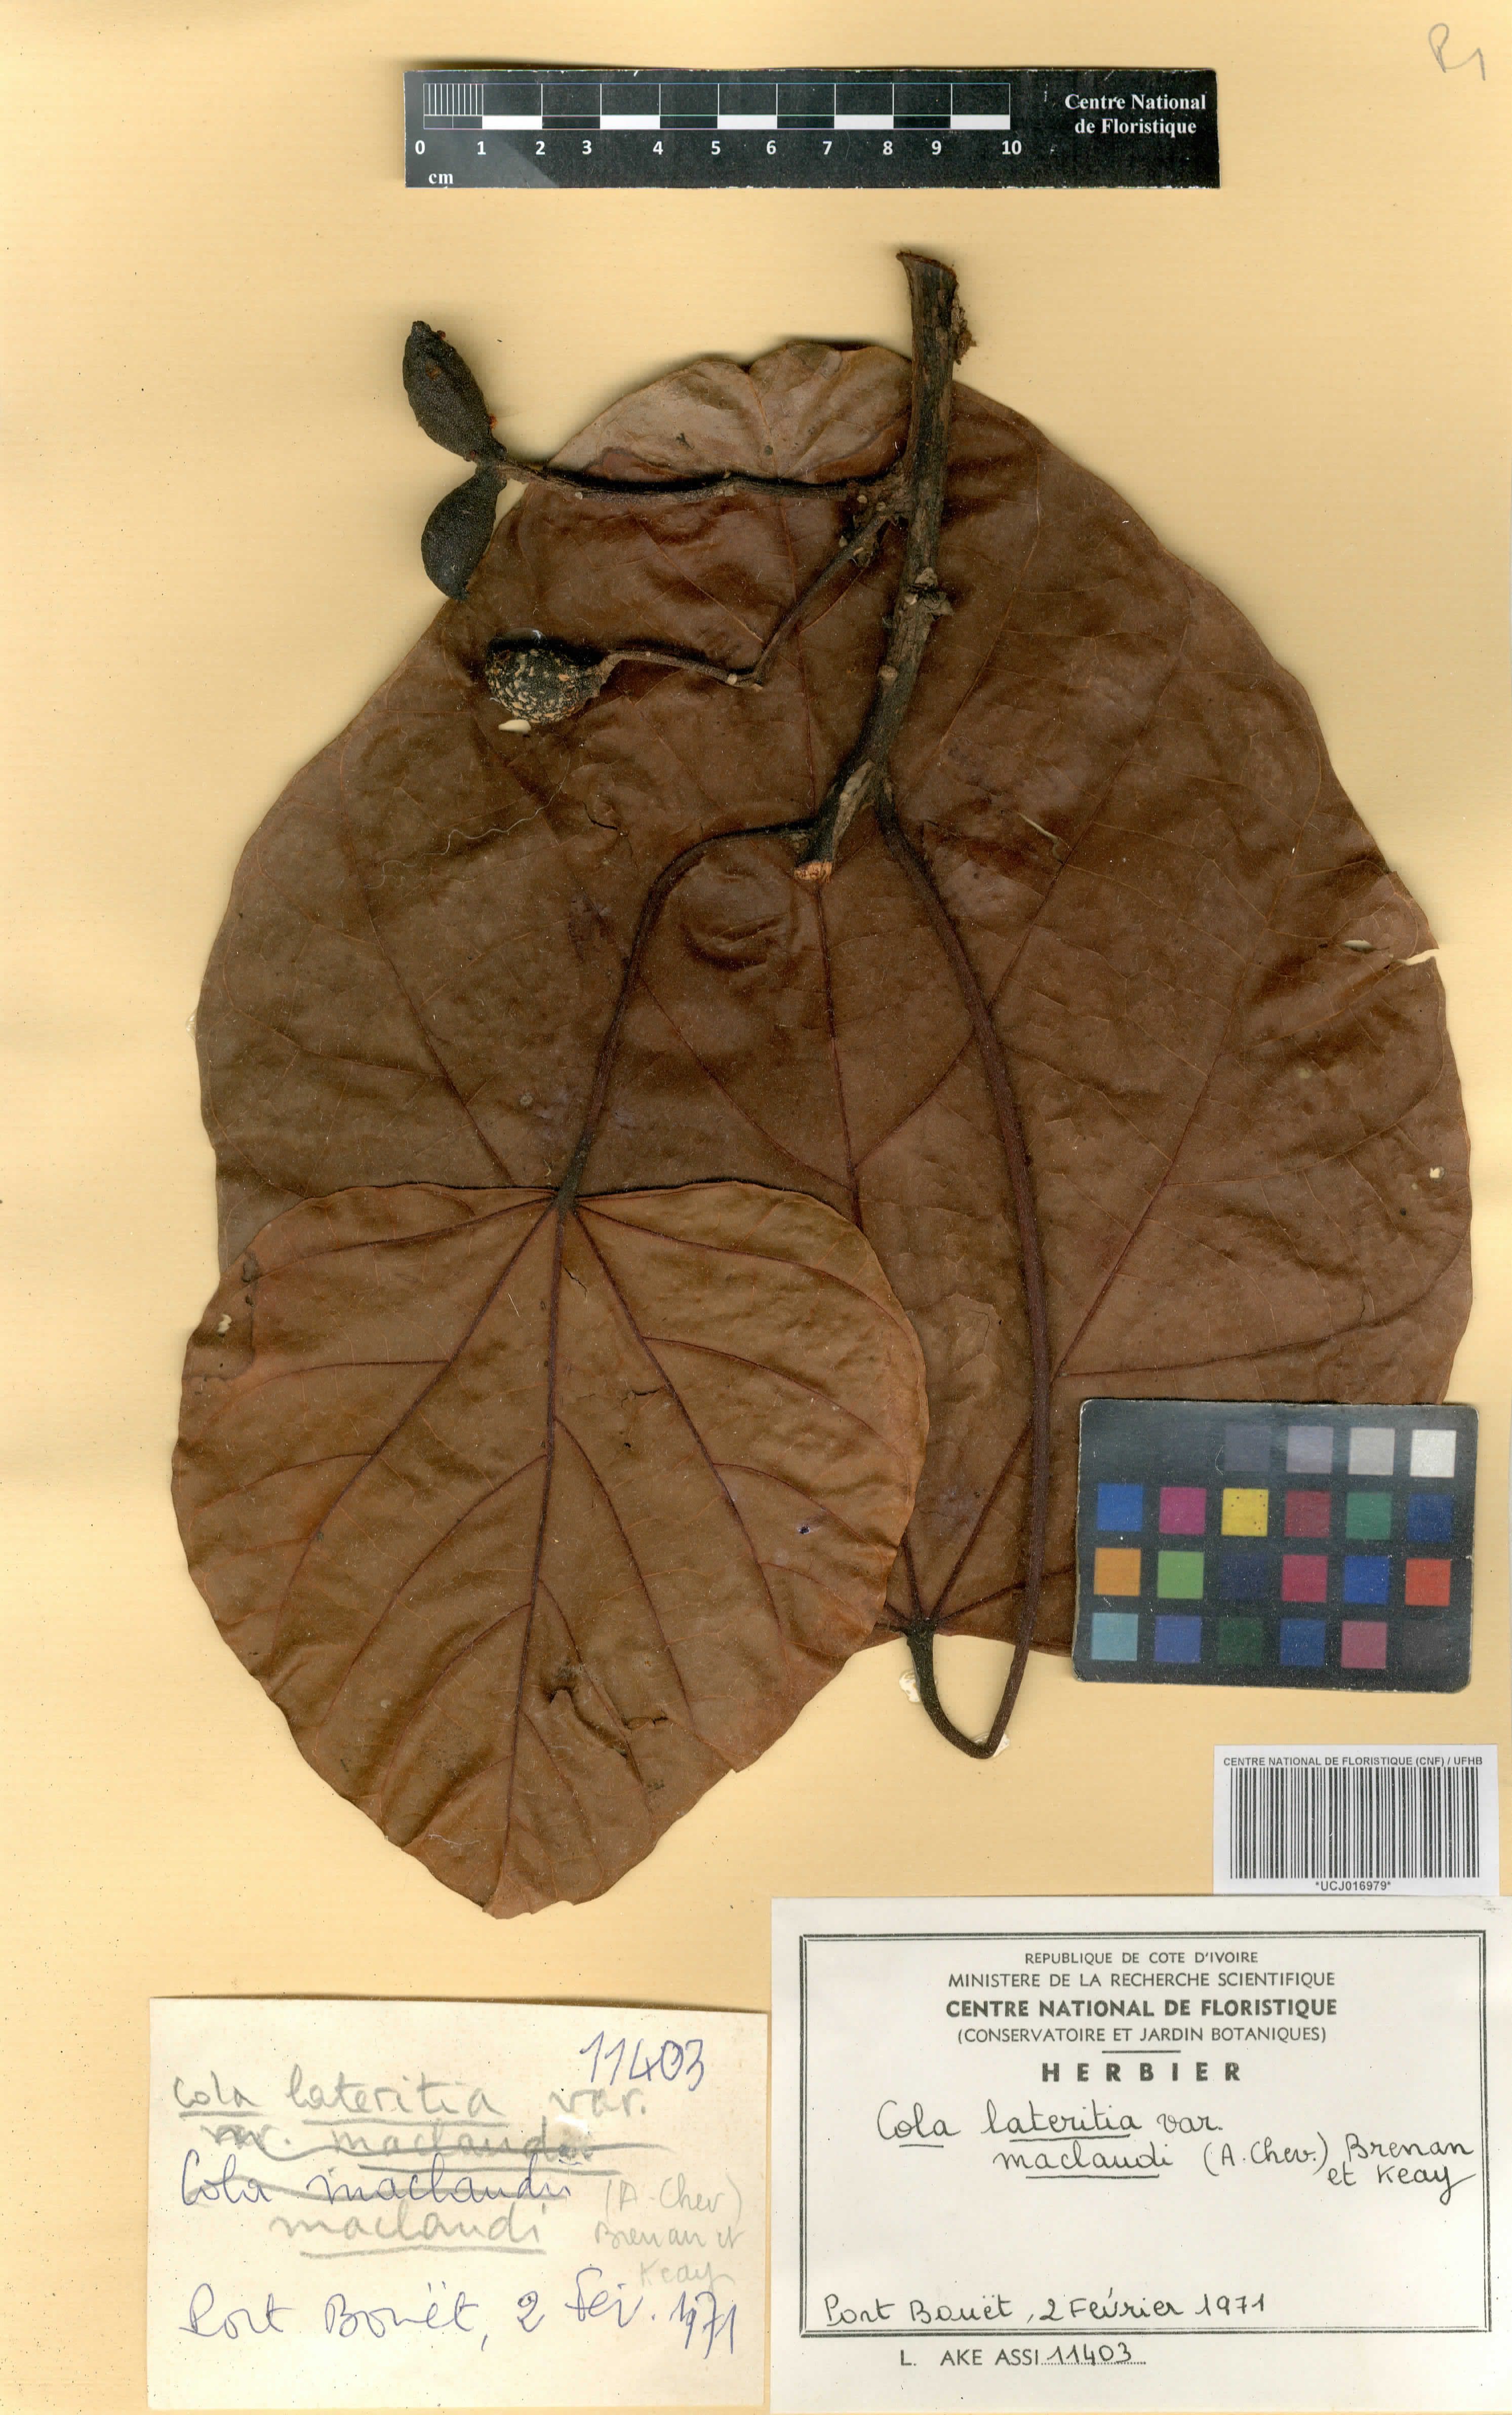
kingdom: Plantae
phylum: Tracheophyta
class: Magnoliopsida
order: Malvales
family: Malvaceae
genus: Cola
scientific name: Cola lateritia
